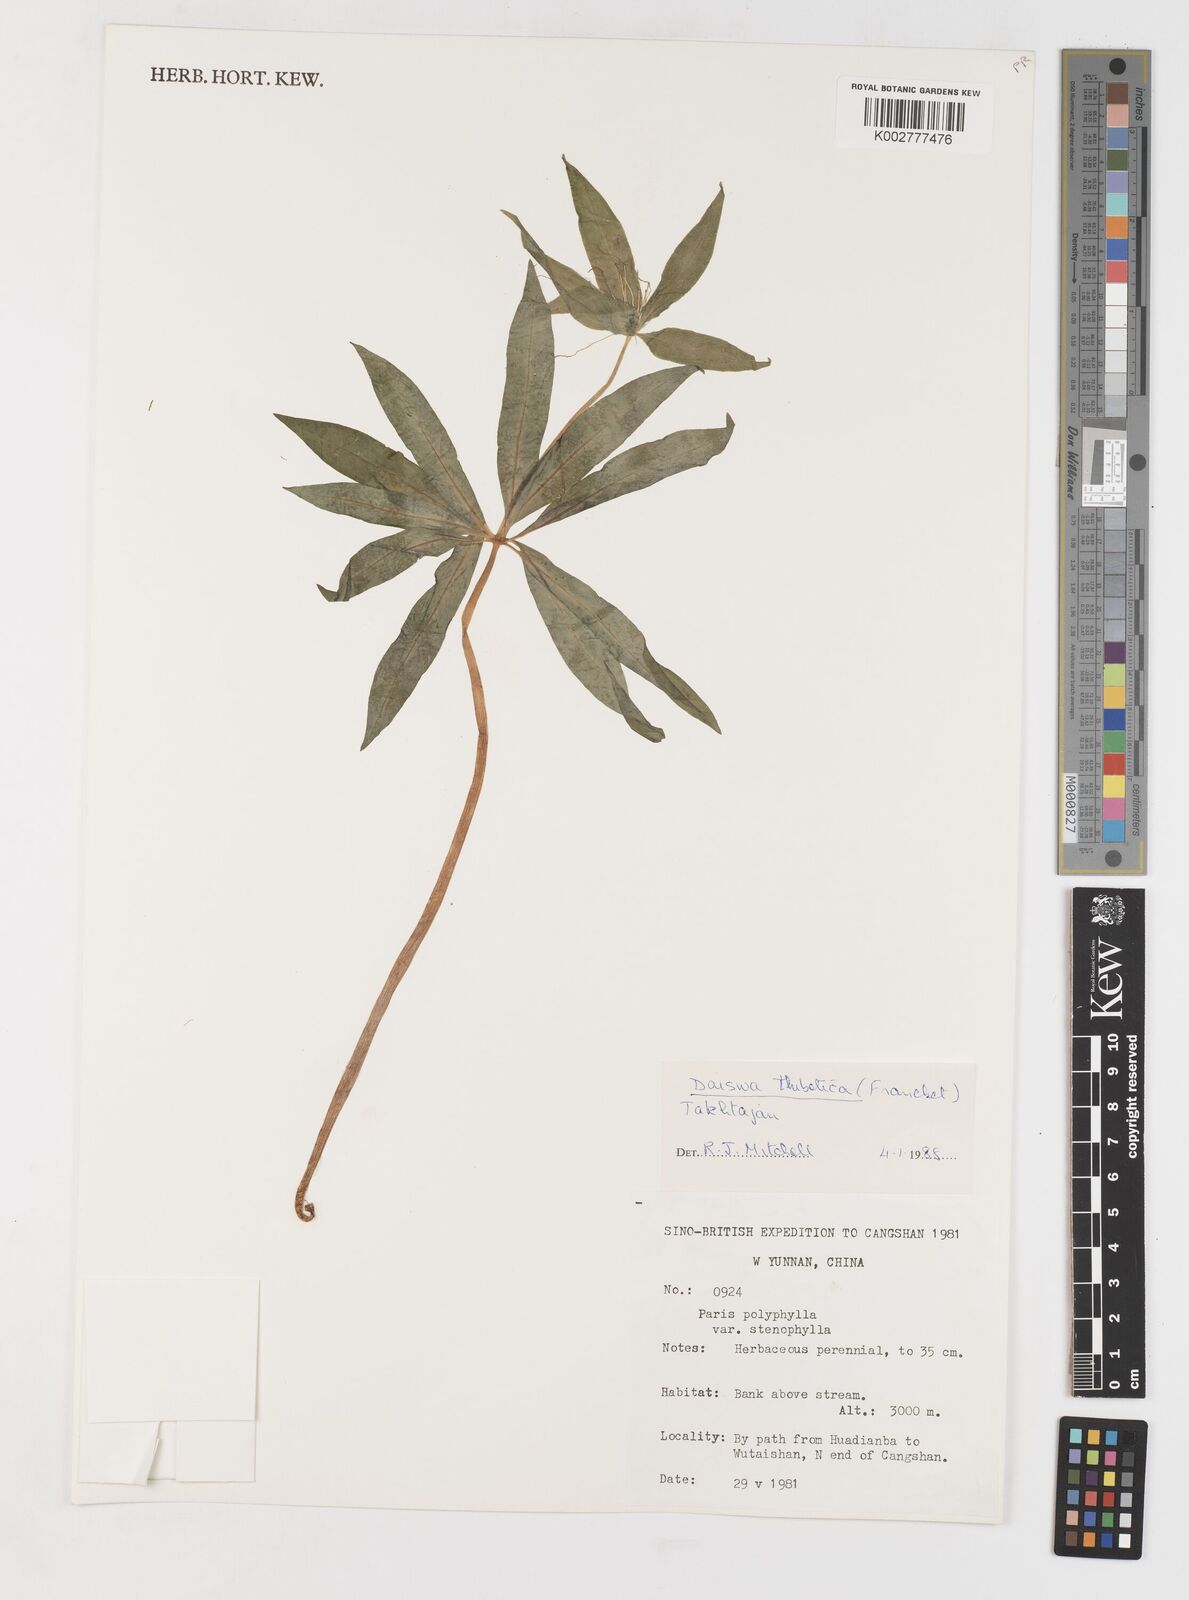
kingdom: Plantae
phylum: Tracheophyta
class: Liliopsida
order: Liliales
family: Melanthiaceae
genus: Paris
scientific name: Paris thibetica
